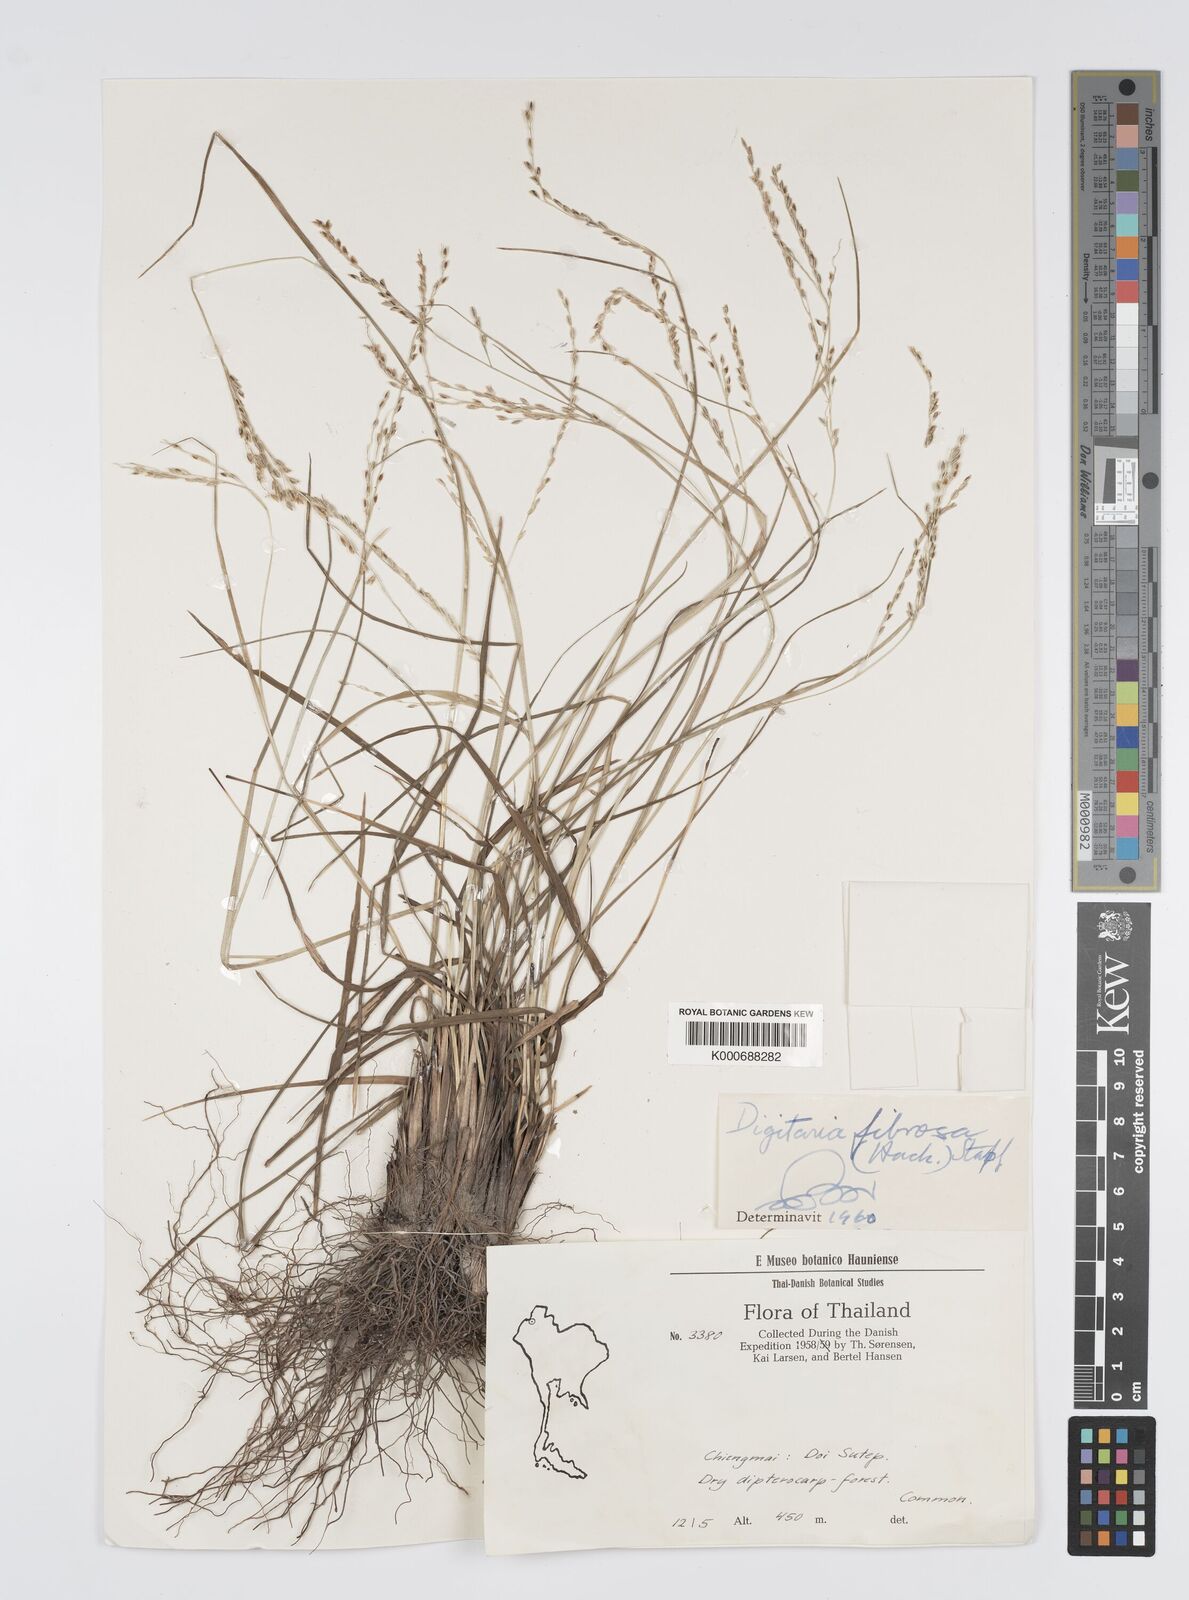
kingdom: Plantae
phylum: Tracheophyta
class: Liliopsida
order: Poales
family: Poaceae
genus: Digitaria
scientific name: Digitaria setifolia
